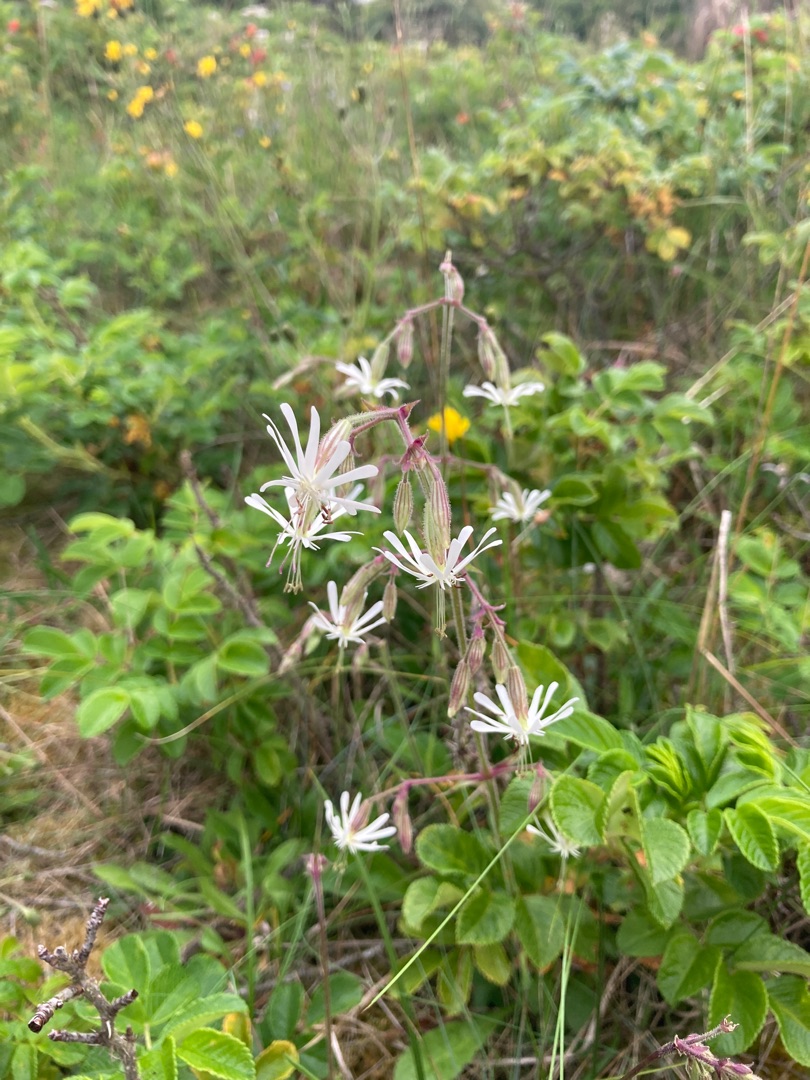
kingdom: Plantae
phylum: Tracheophyta
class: Magnoliopsida
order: Caryophyllales
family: Caryophyllaceae
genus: Silene
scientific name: Silene nutans
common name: Nikkende limurt
